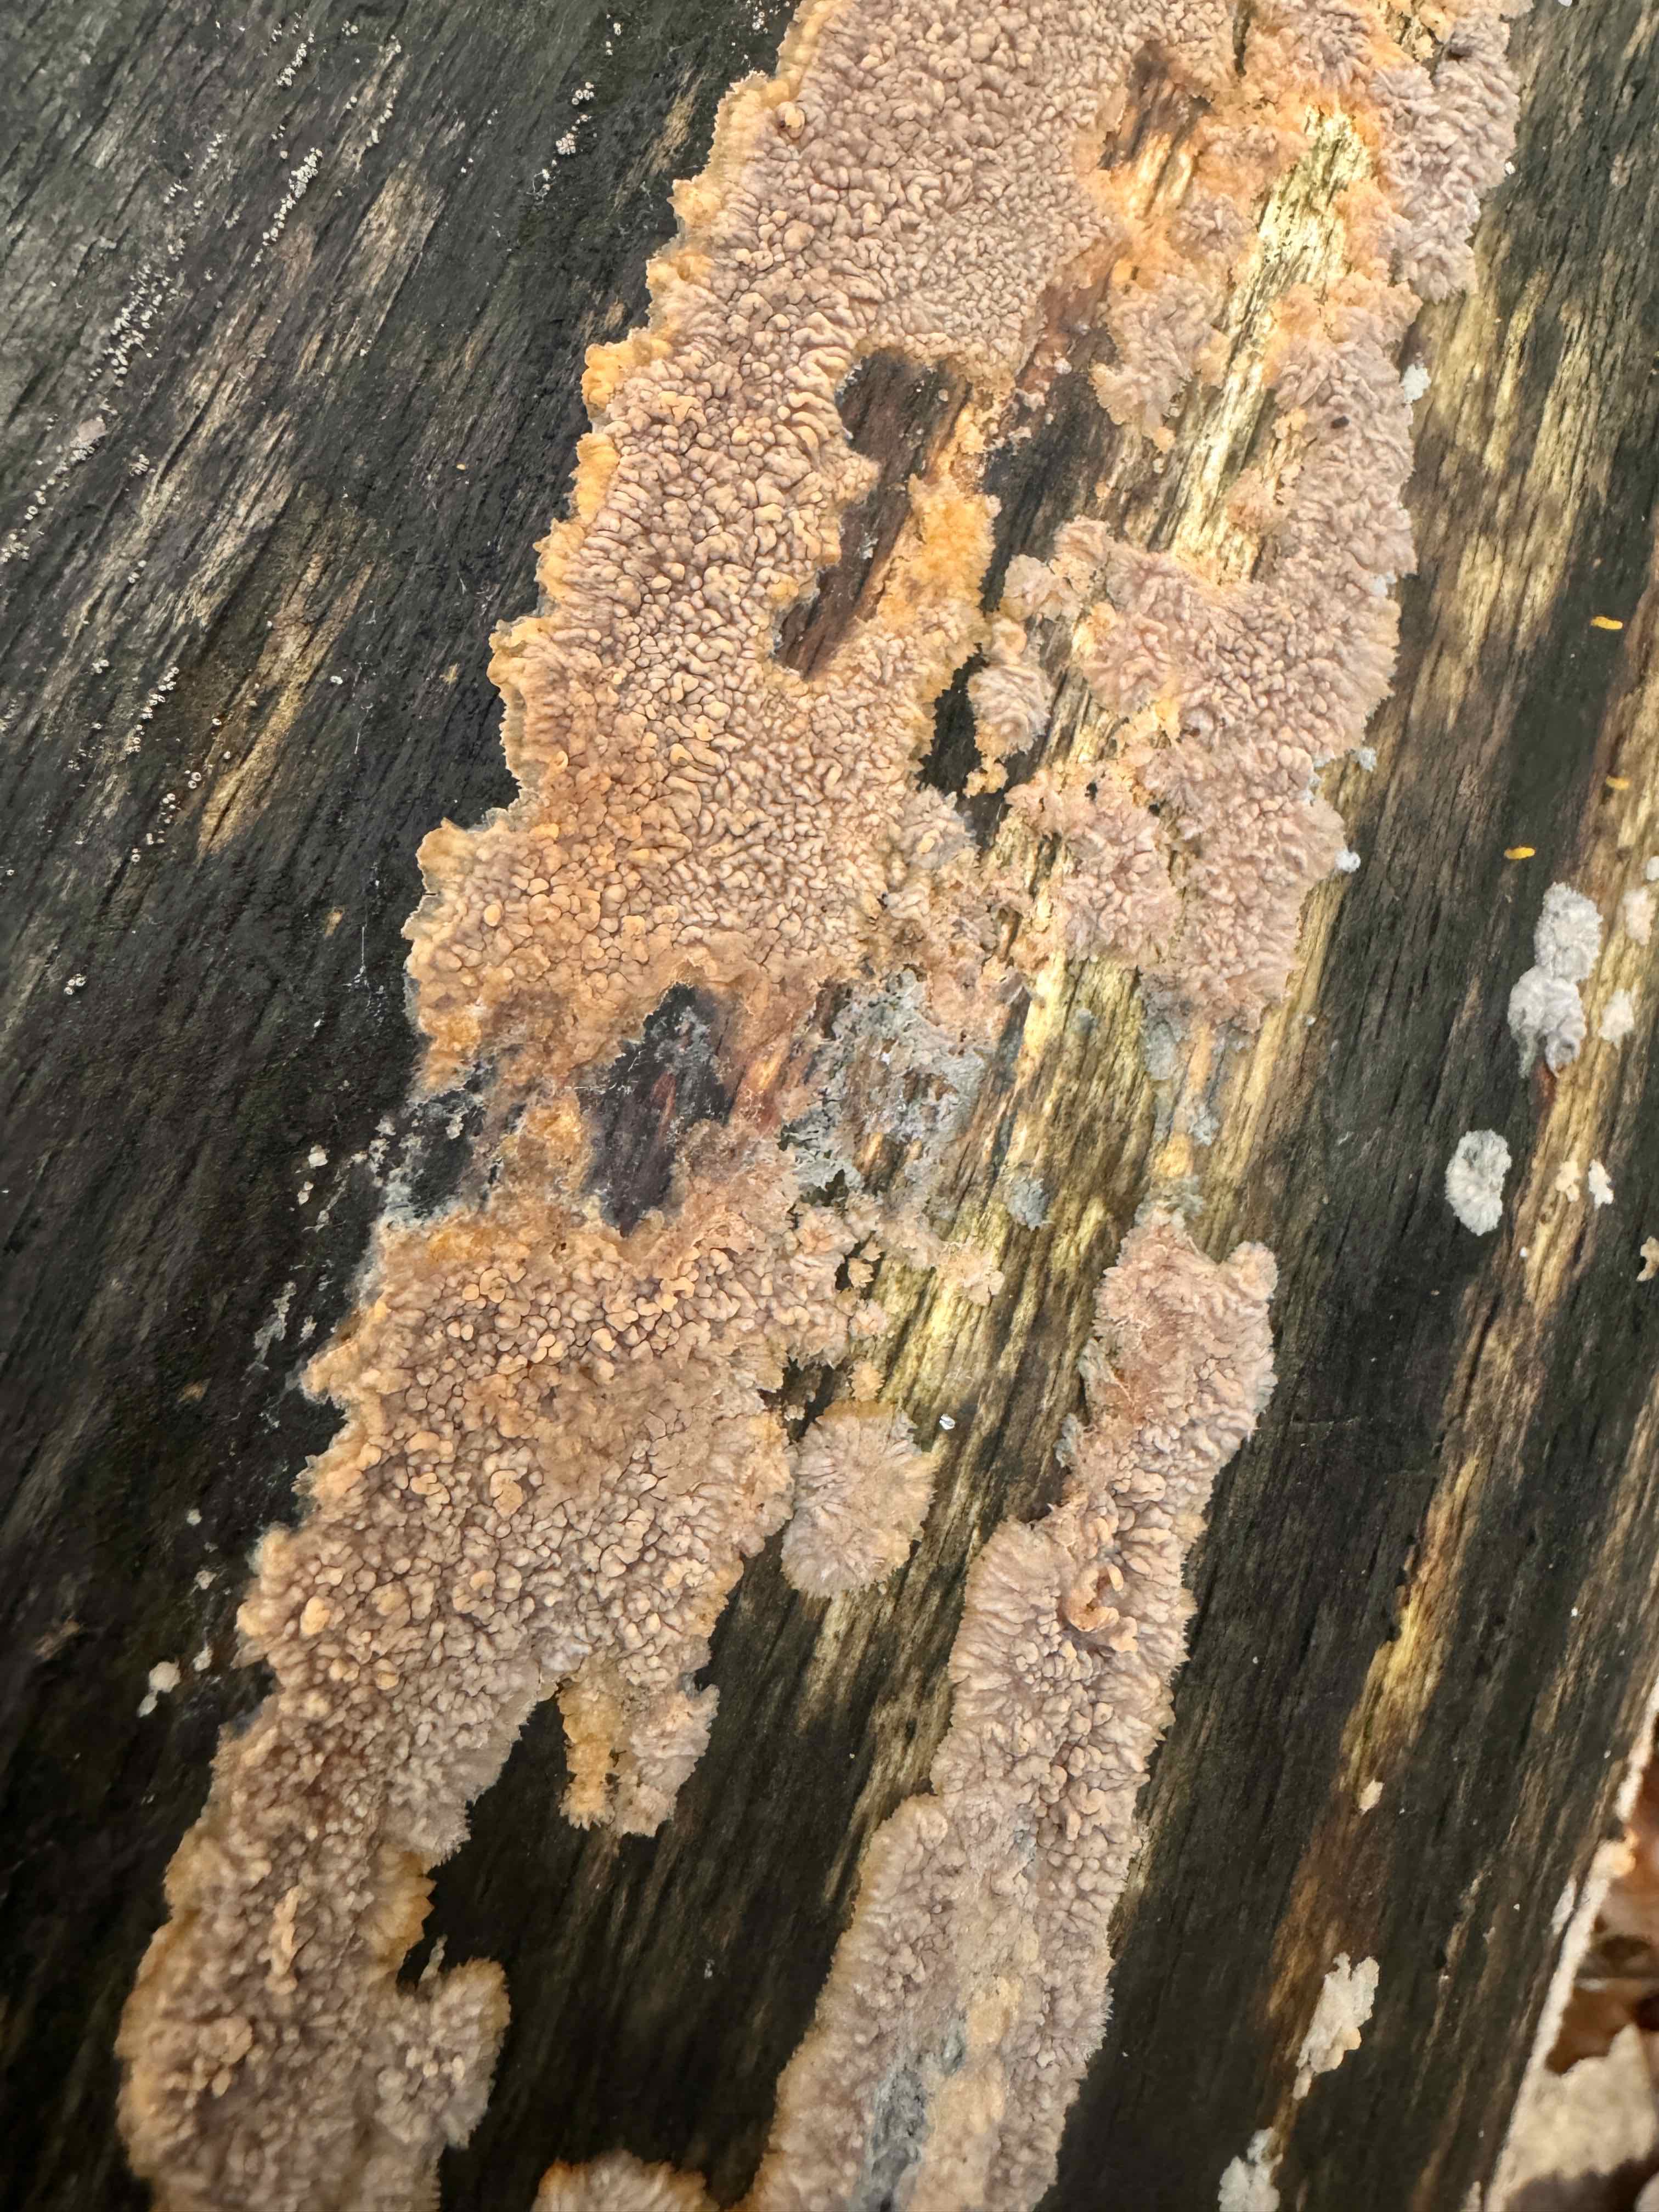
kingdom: Fungi
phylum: Basidiomycota
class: Agaricomycetes
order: Polyporales
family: Meruliaceae
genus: Phlebia
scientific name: Phlebia radiata
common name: stråle-åresvamp
